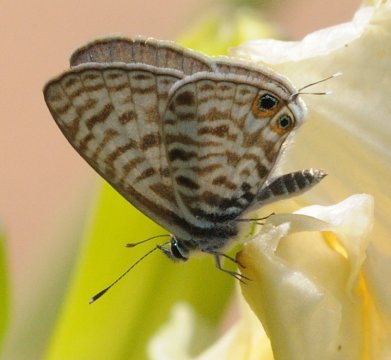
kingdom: Animalia
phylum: Arthropoda
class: Insecta
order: Lepidoptera
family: Lycaenidae
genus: Leptotes
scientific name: Leptotes pirithous
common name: Lang's Short-tailed Blue
